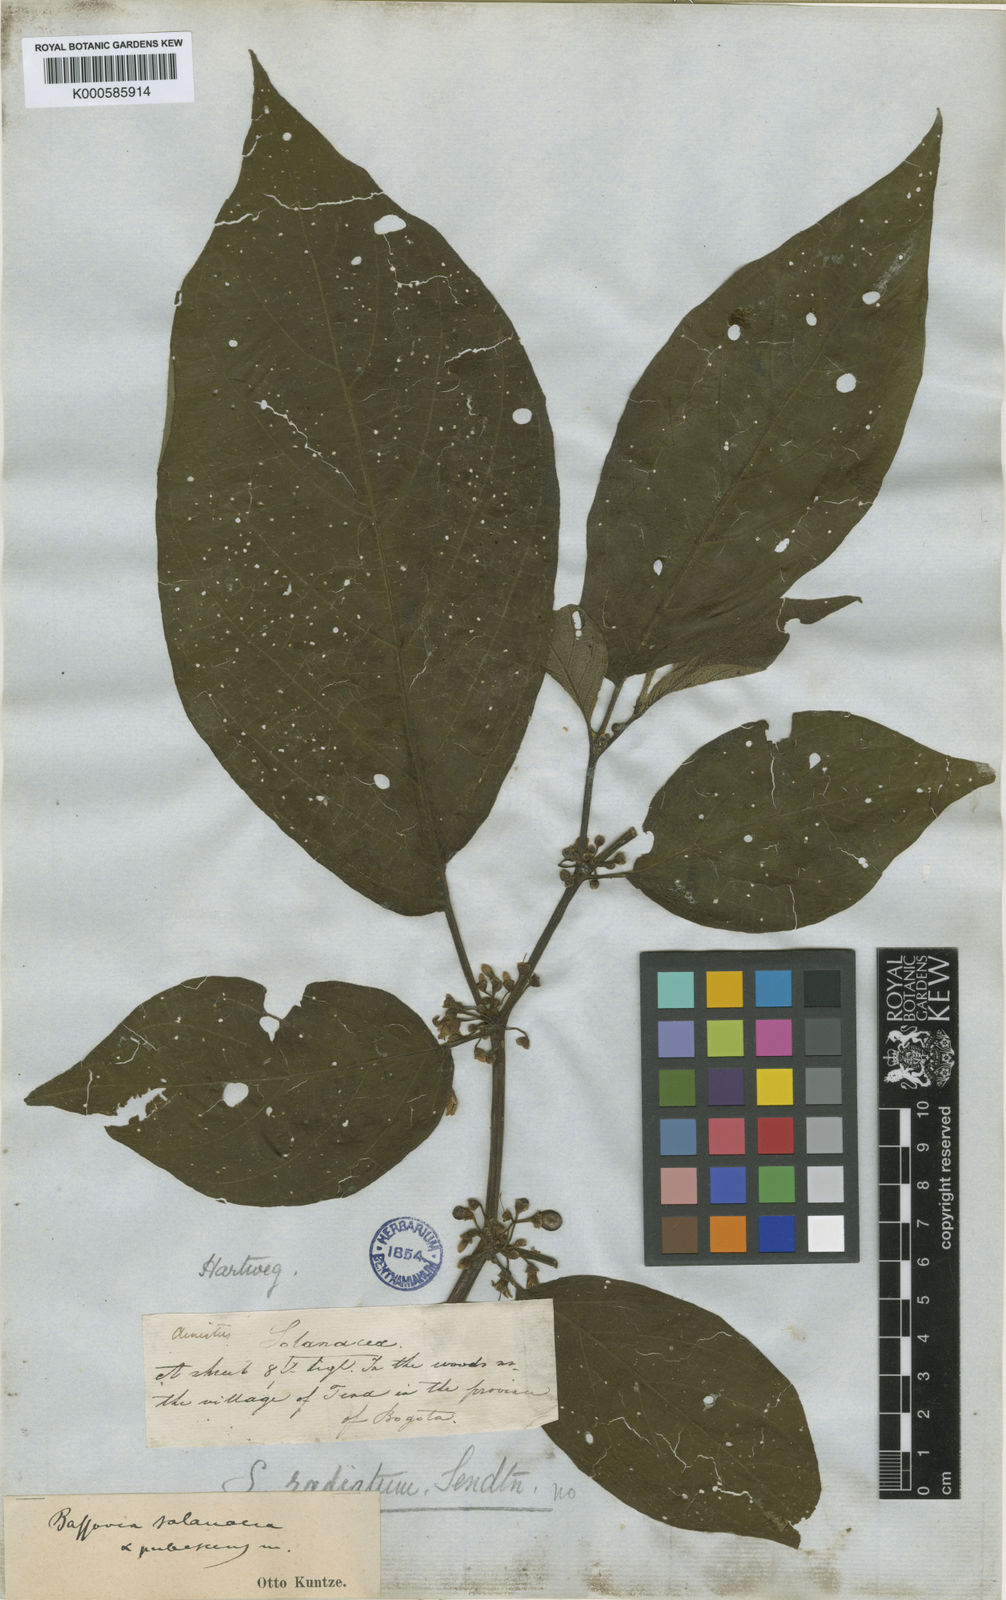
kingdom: Plantae
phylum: Tracheophyta
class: Magnoliopsida
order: Solanales
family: Solanaceae
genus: Witheringia
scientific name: Witheringia
